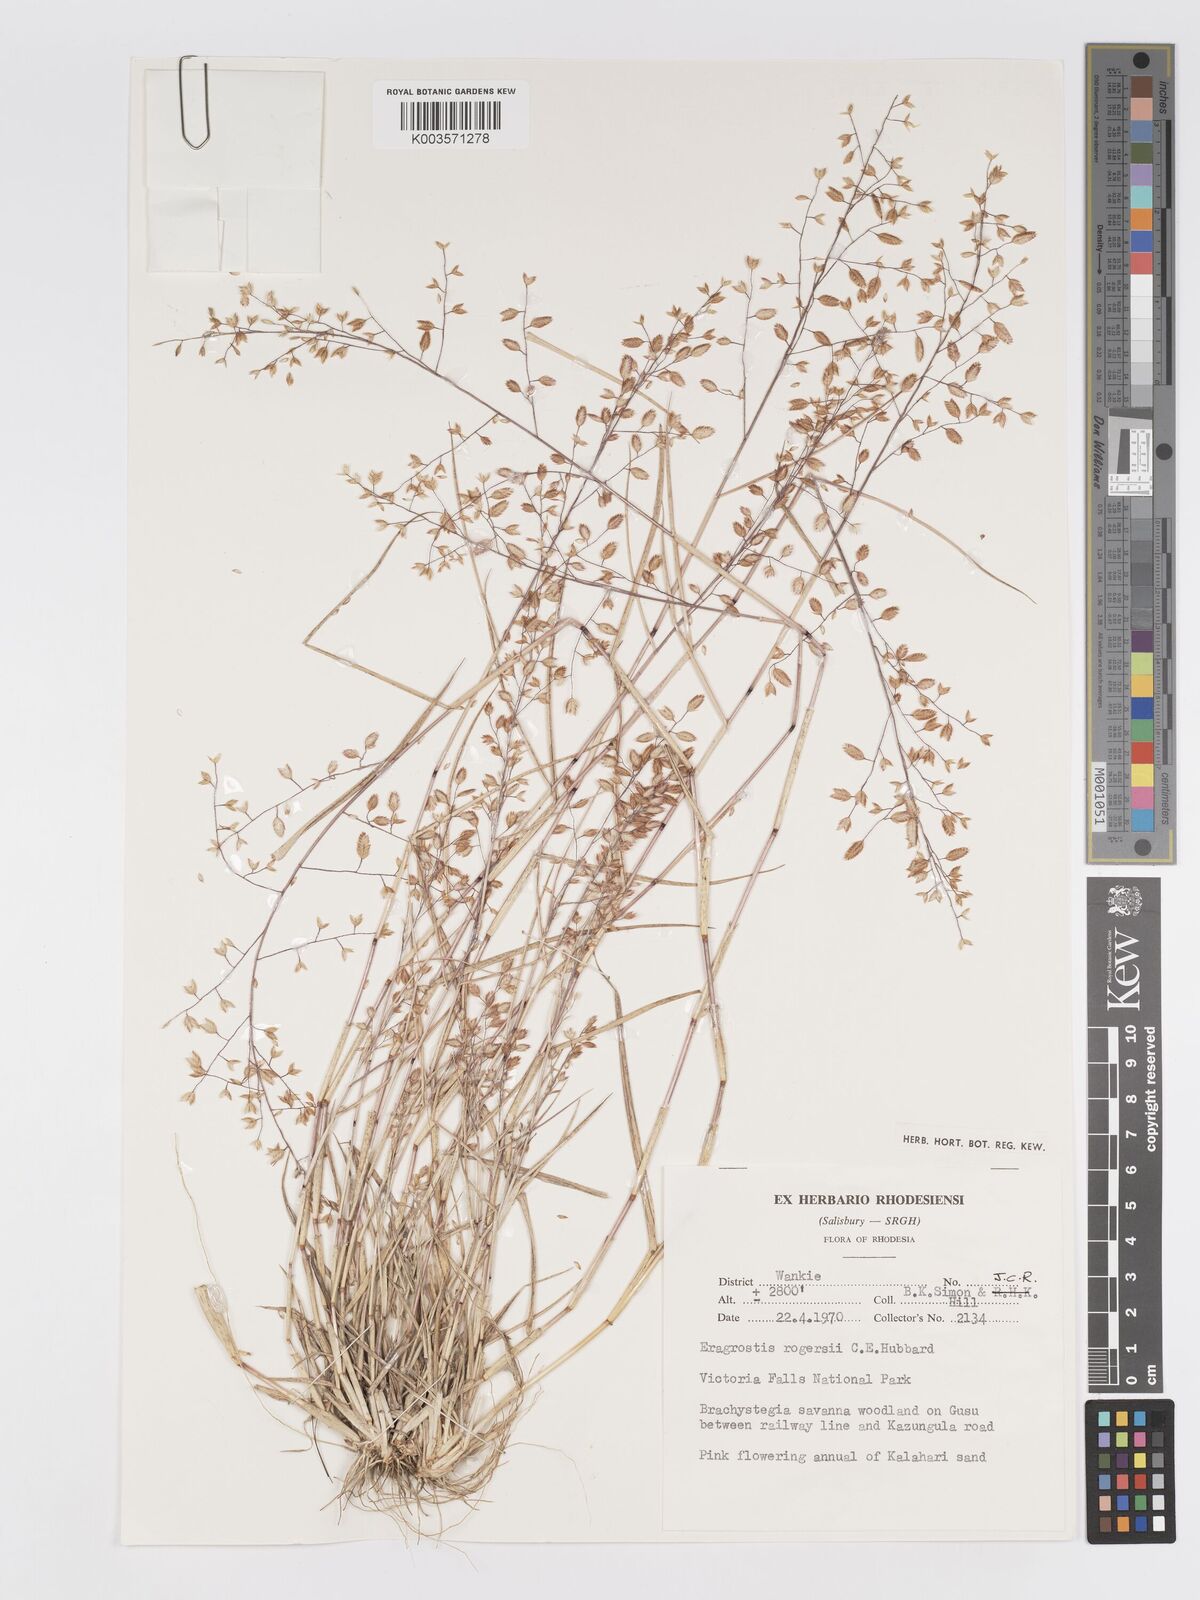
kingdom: Plantae
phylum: Tracheophyta
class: Liliopsida
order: Poales
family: Poaceae
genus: Eragrostis
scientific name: Eragrostis rogersii
